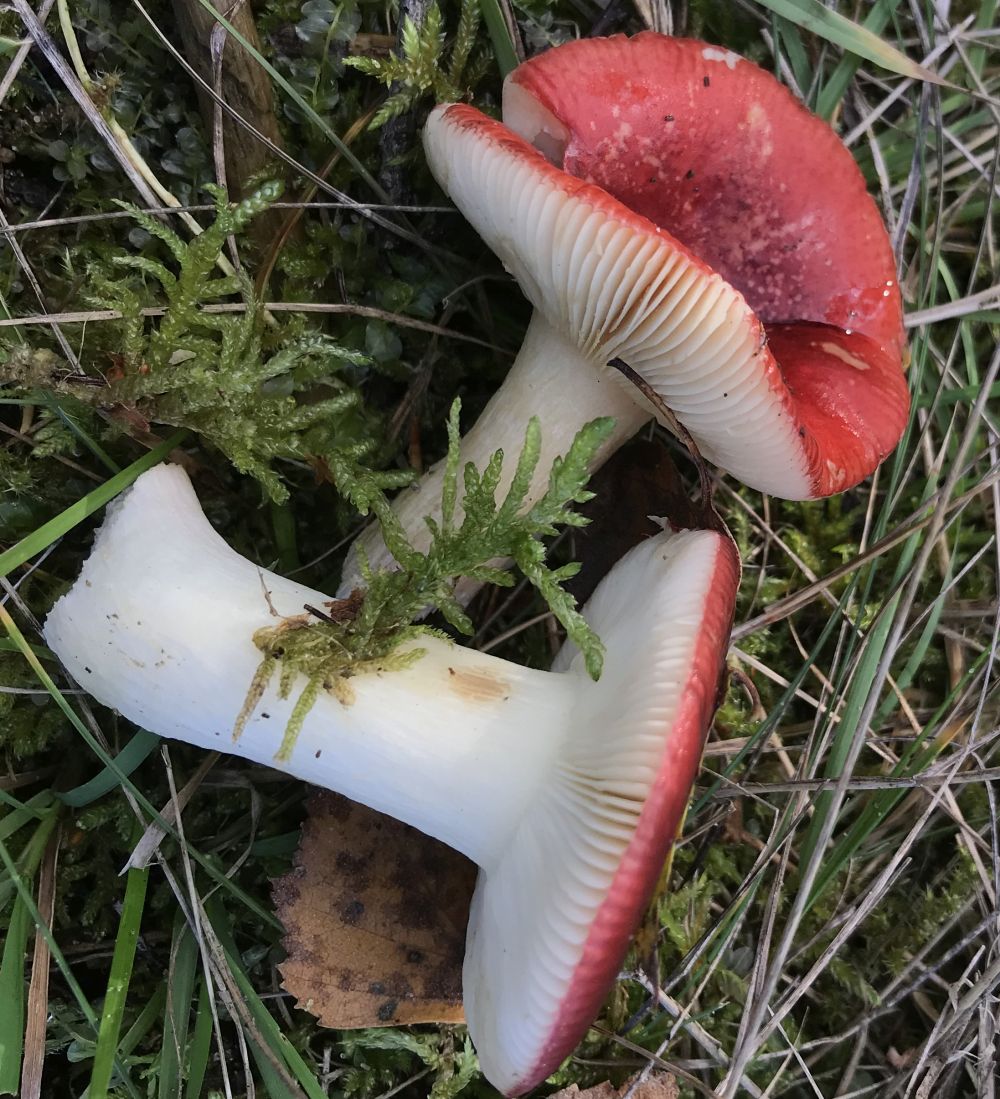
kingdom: Fungi
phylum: Basidiomycota
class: Agaricomycetes
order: Russulales
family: Russulaceae
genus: Russula
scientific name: Russula emetica
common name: stor gift-skørhat
